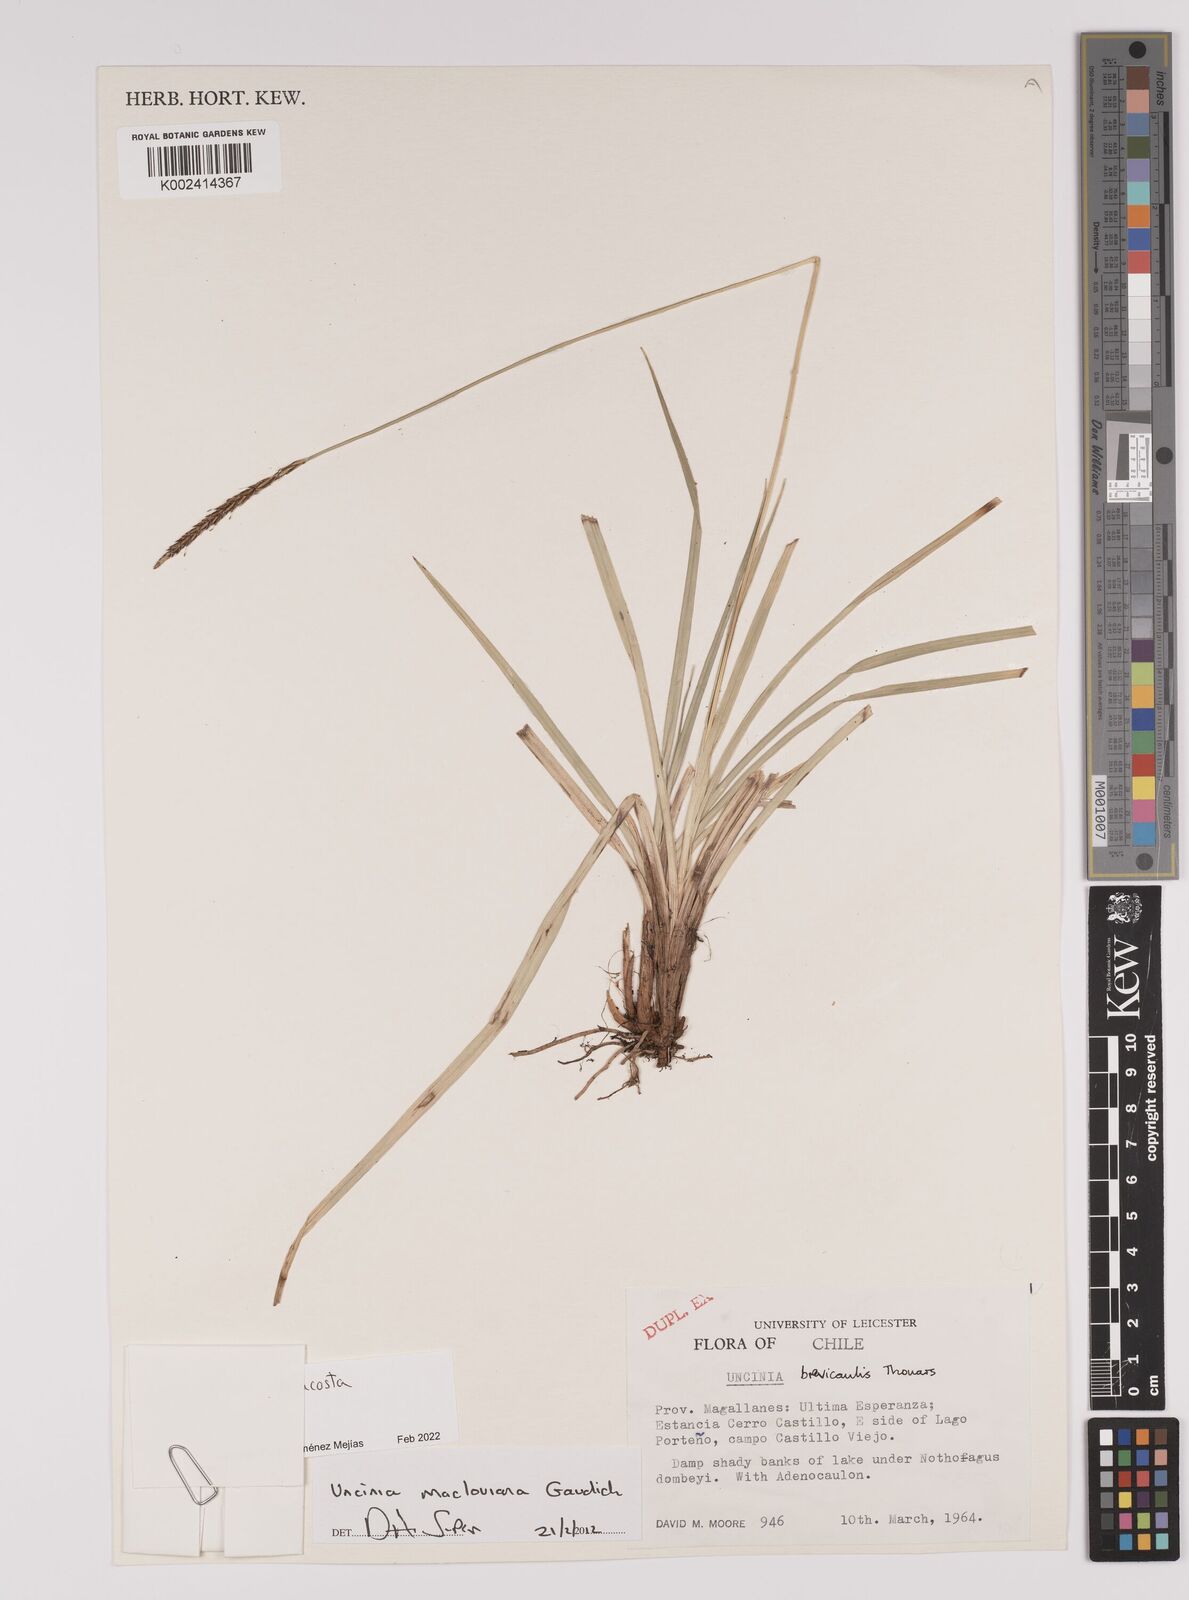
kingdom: Plantae
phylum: Tracheophyta
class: Liliopsida
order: Poales
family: Cyperaceae
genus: Carex
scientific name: Carex delacosta
